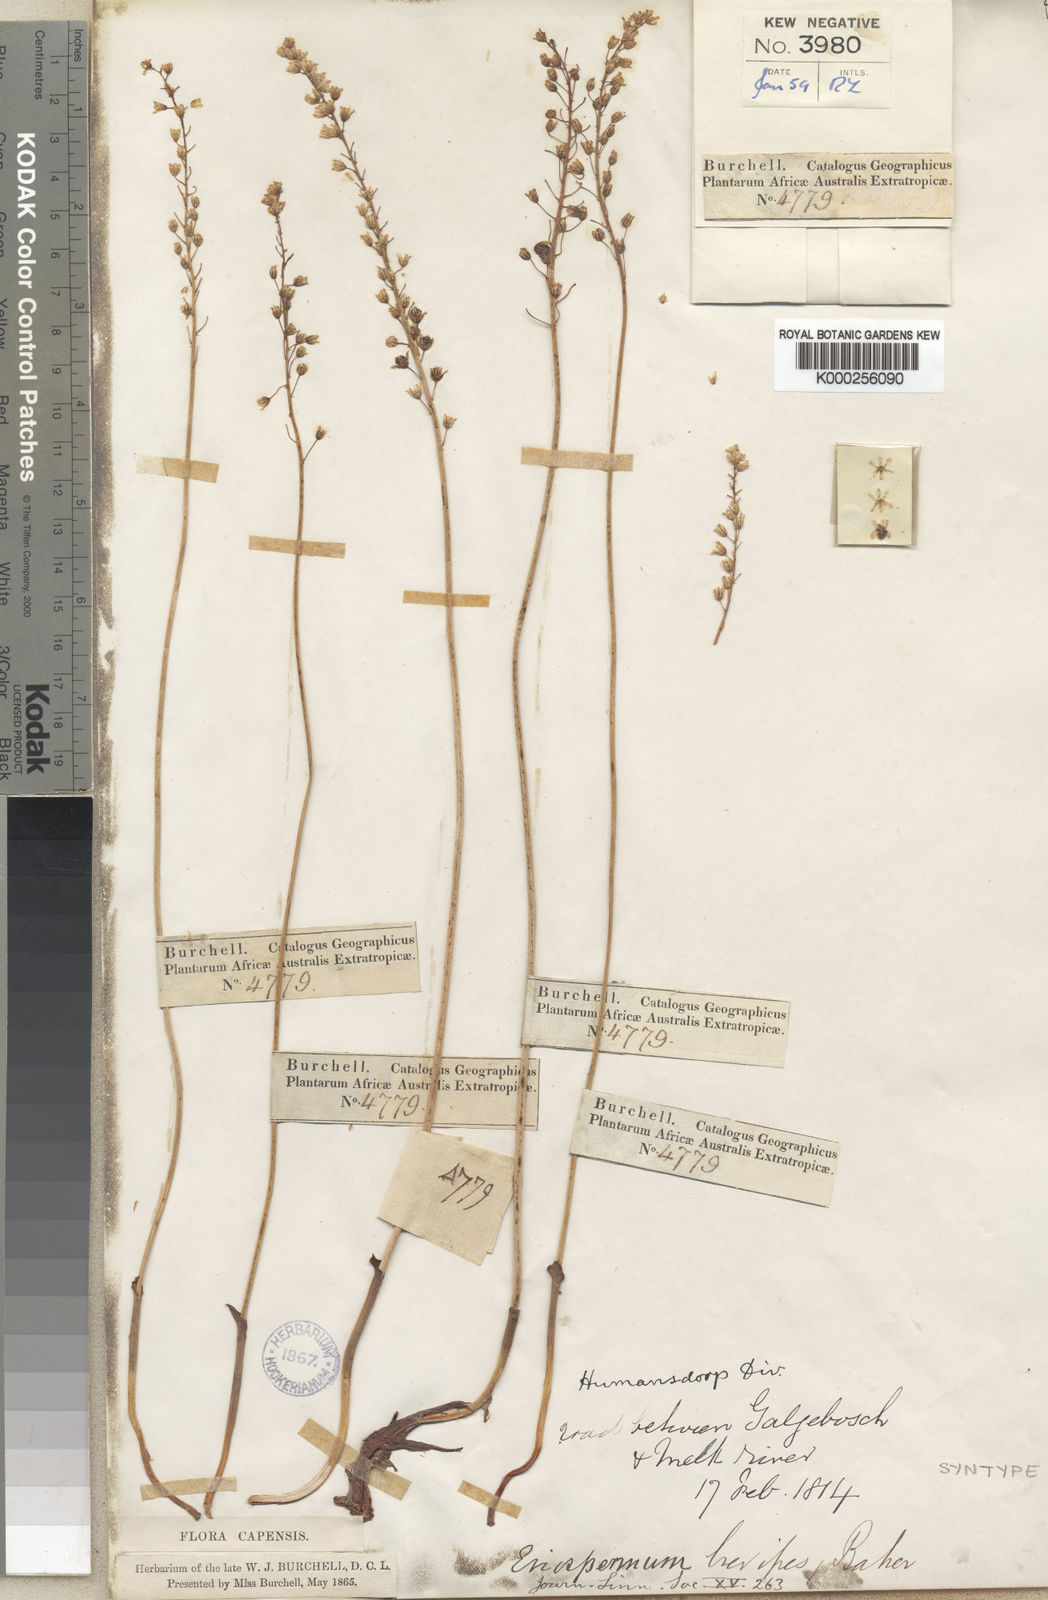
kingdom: Plantae
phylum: Tracheophyta
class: Liliopsida
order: Asparagales
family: Asparagaceae
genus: Eriospermum
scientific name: Eriospermum brevipes
